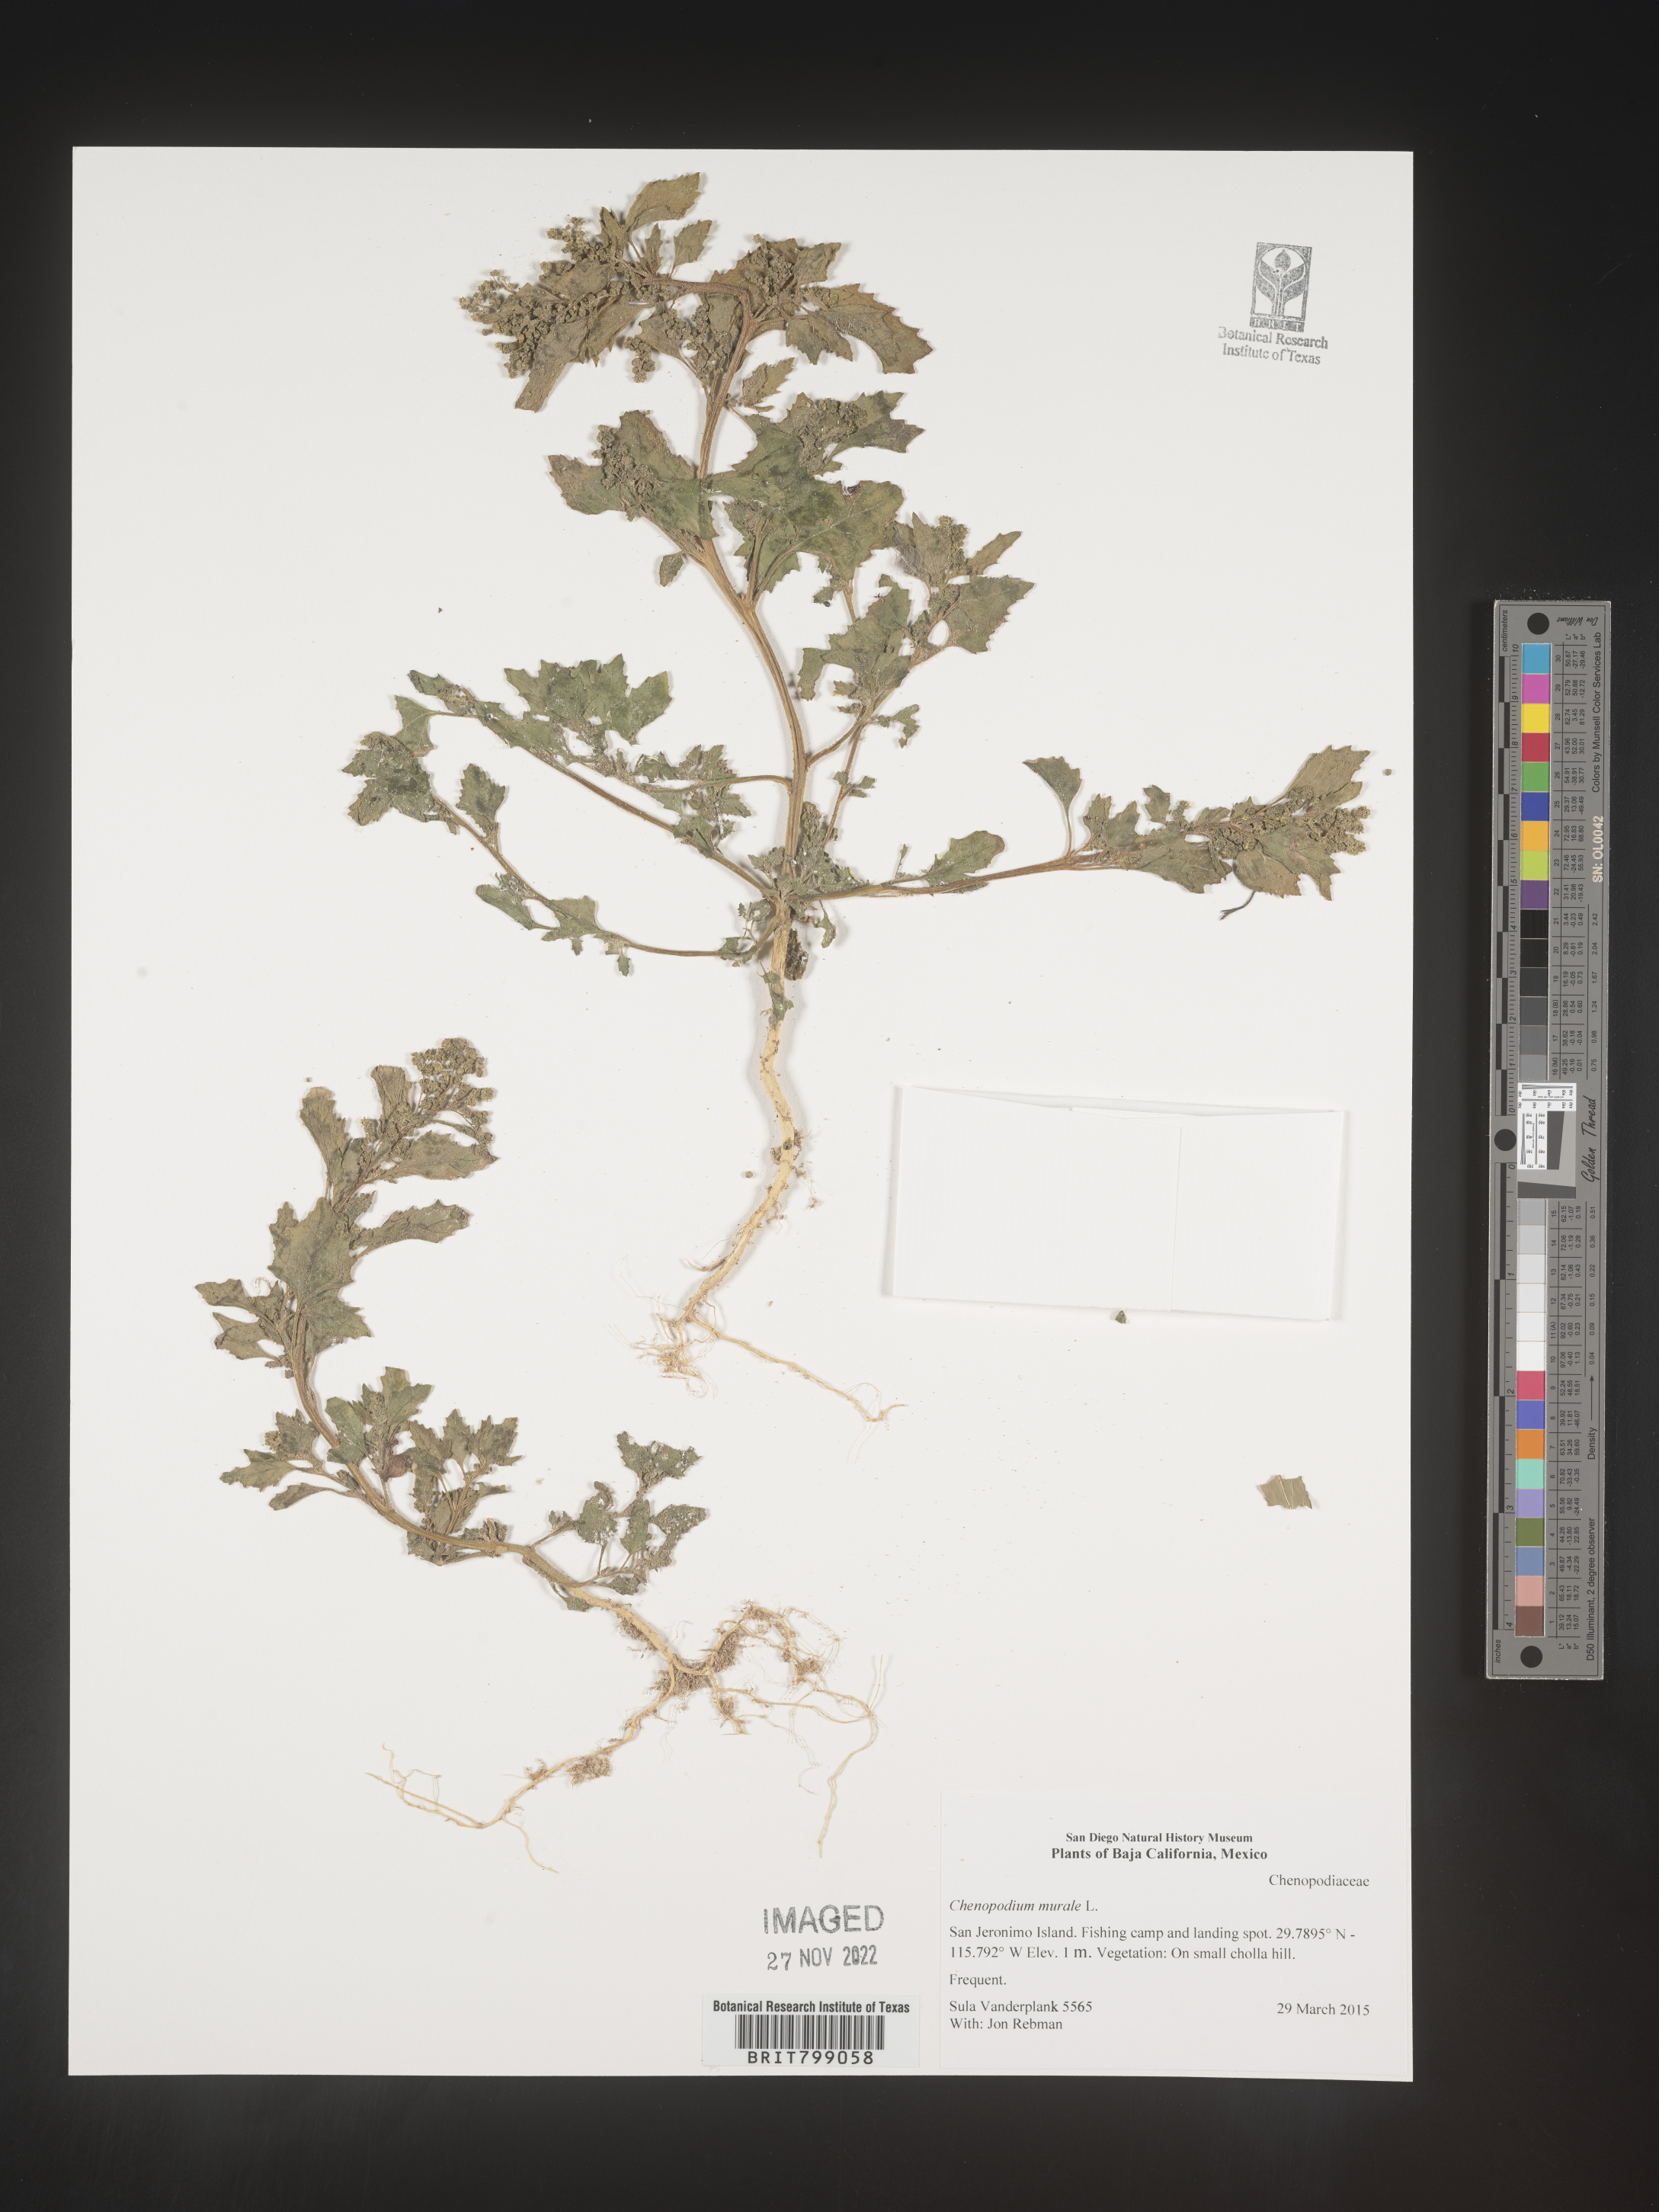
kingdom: Plantae
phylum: Tracheophyta
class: Magnoliopsida
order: Caryophyllales
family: Amaranthaceae
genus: Chenopodium
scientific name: Chenopodium
